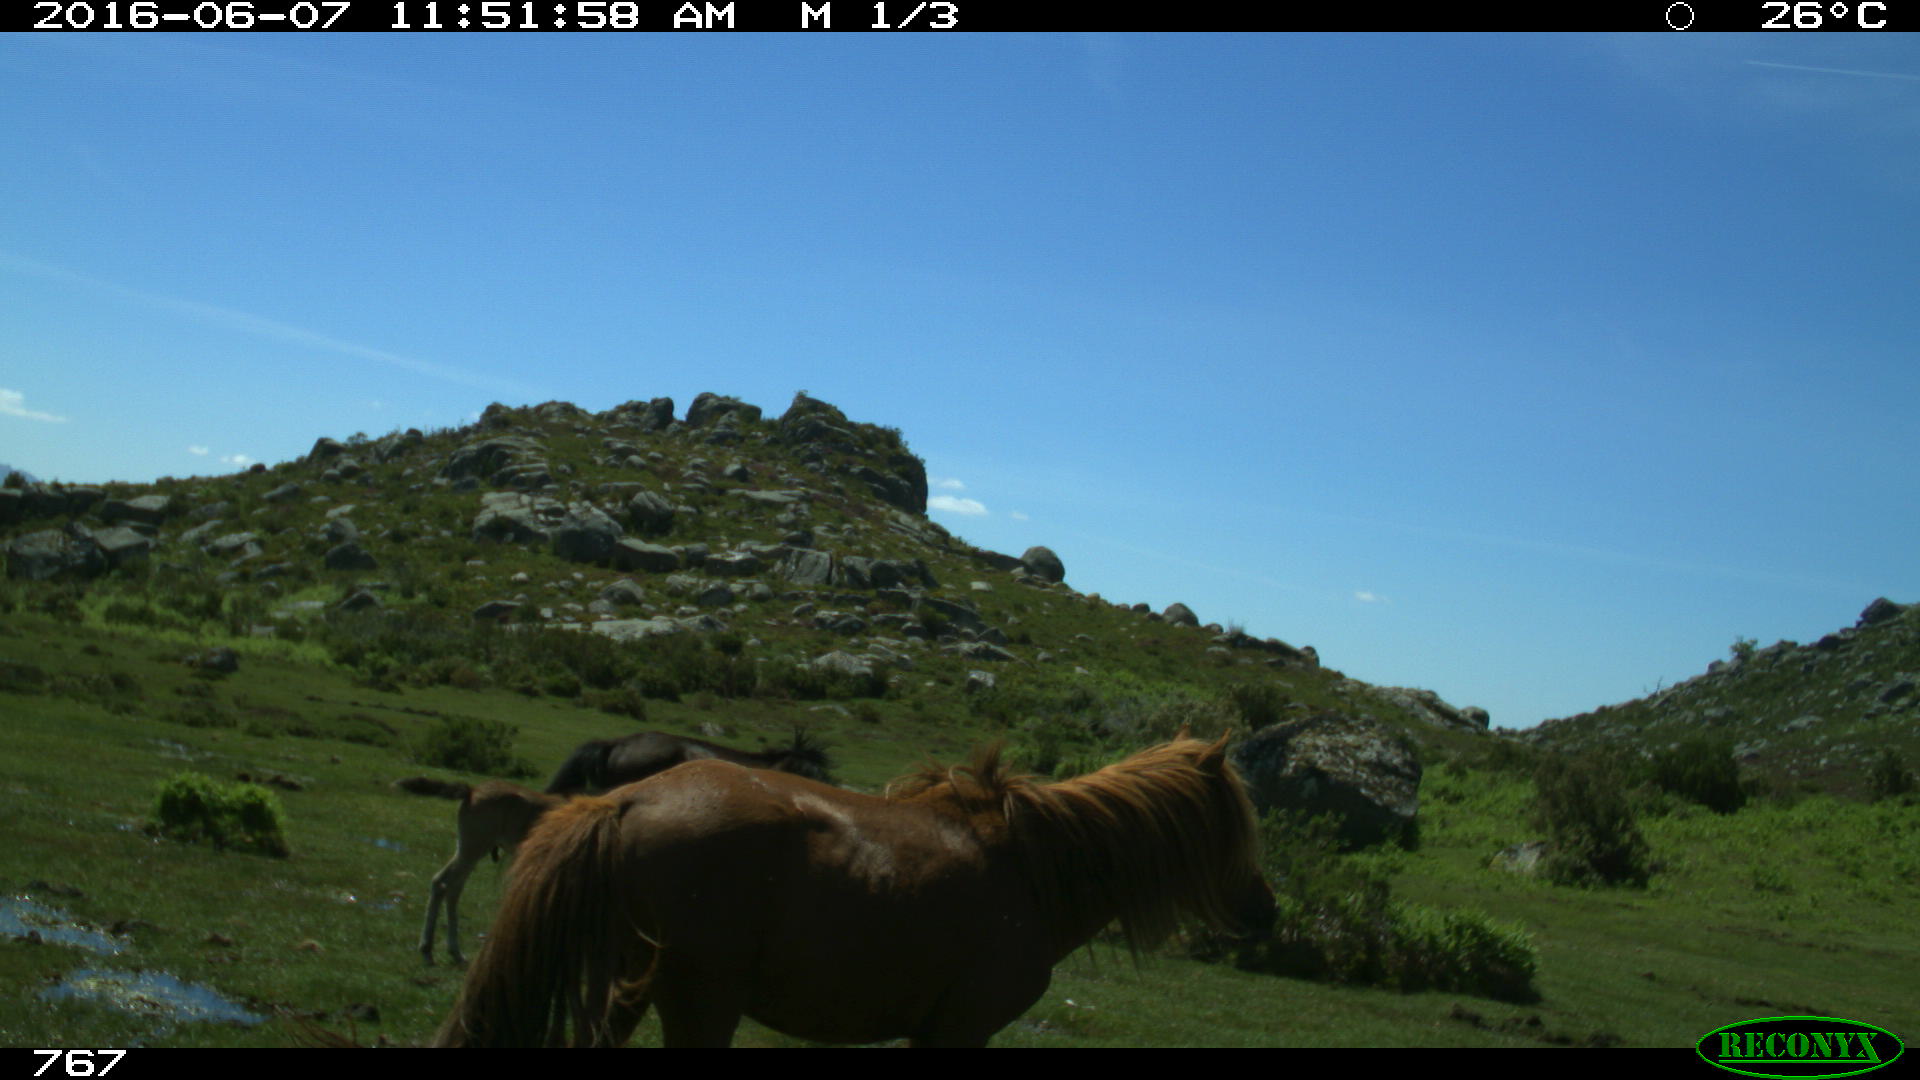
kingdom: Animalia
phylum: Chordata
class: Mammalia
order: Perissodactyla
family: Equidae
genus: Equus
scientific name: Equus caballus
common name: Horse
